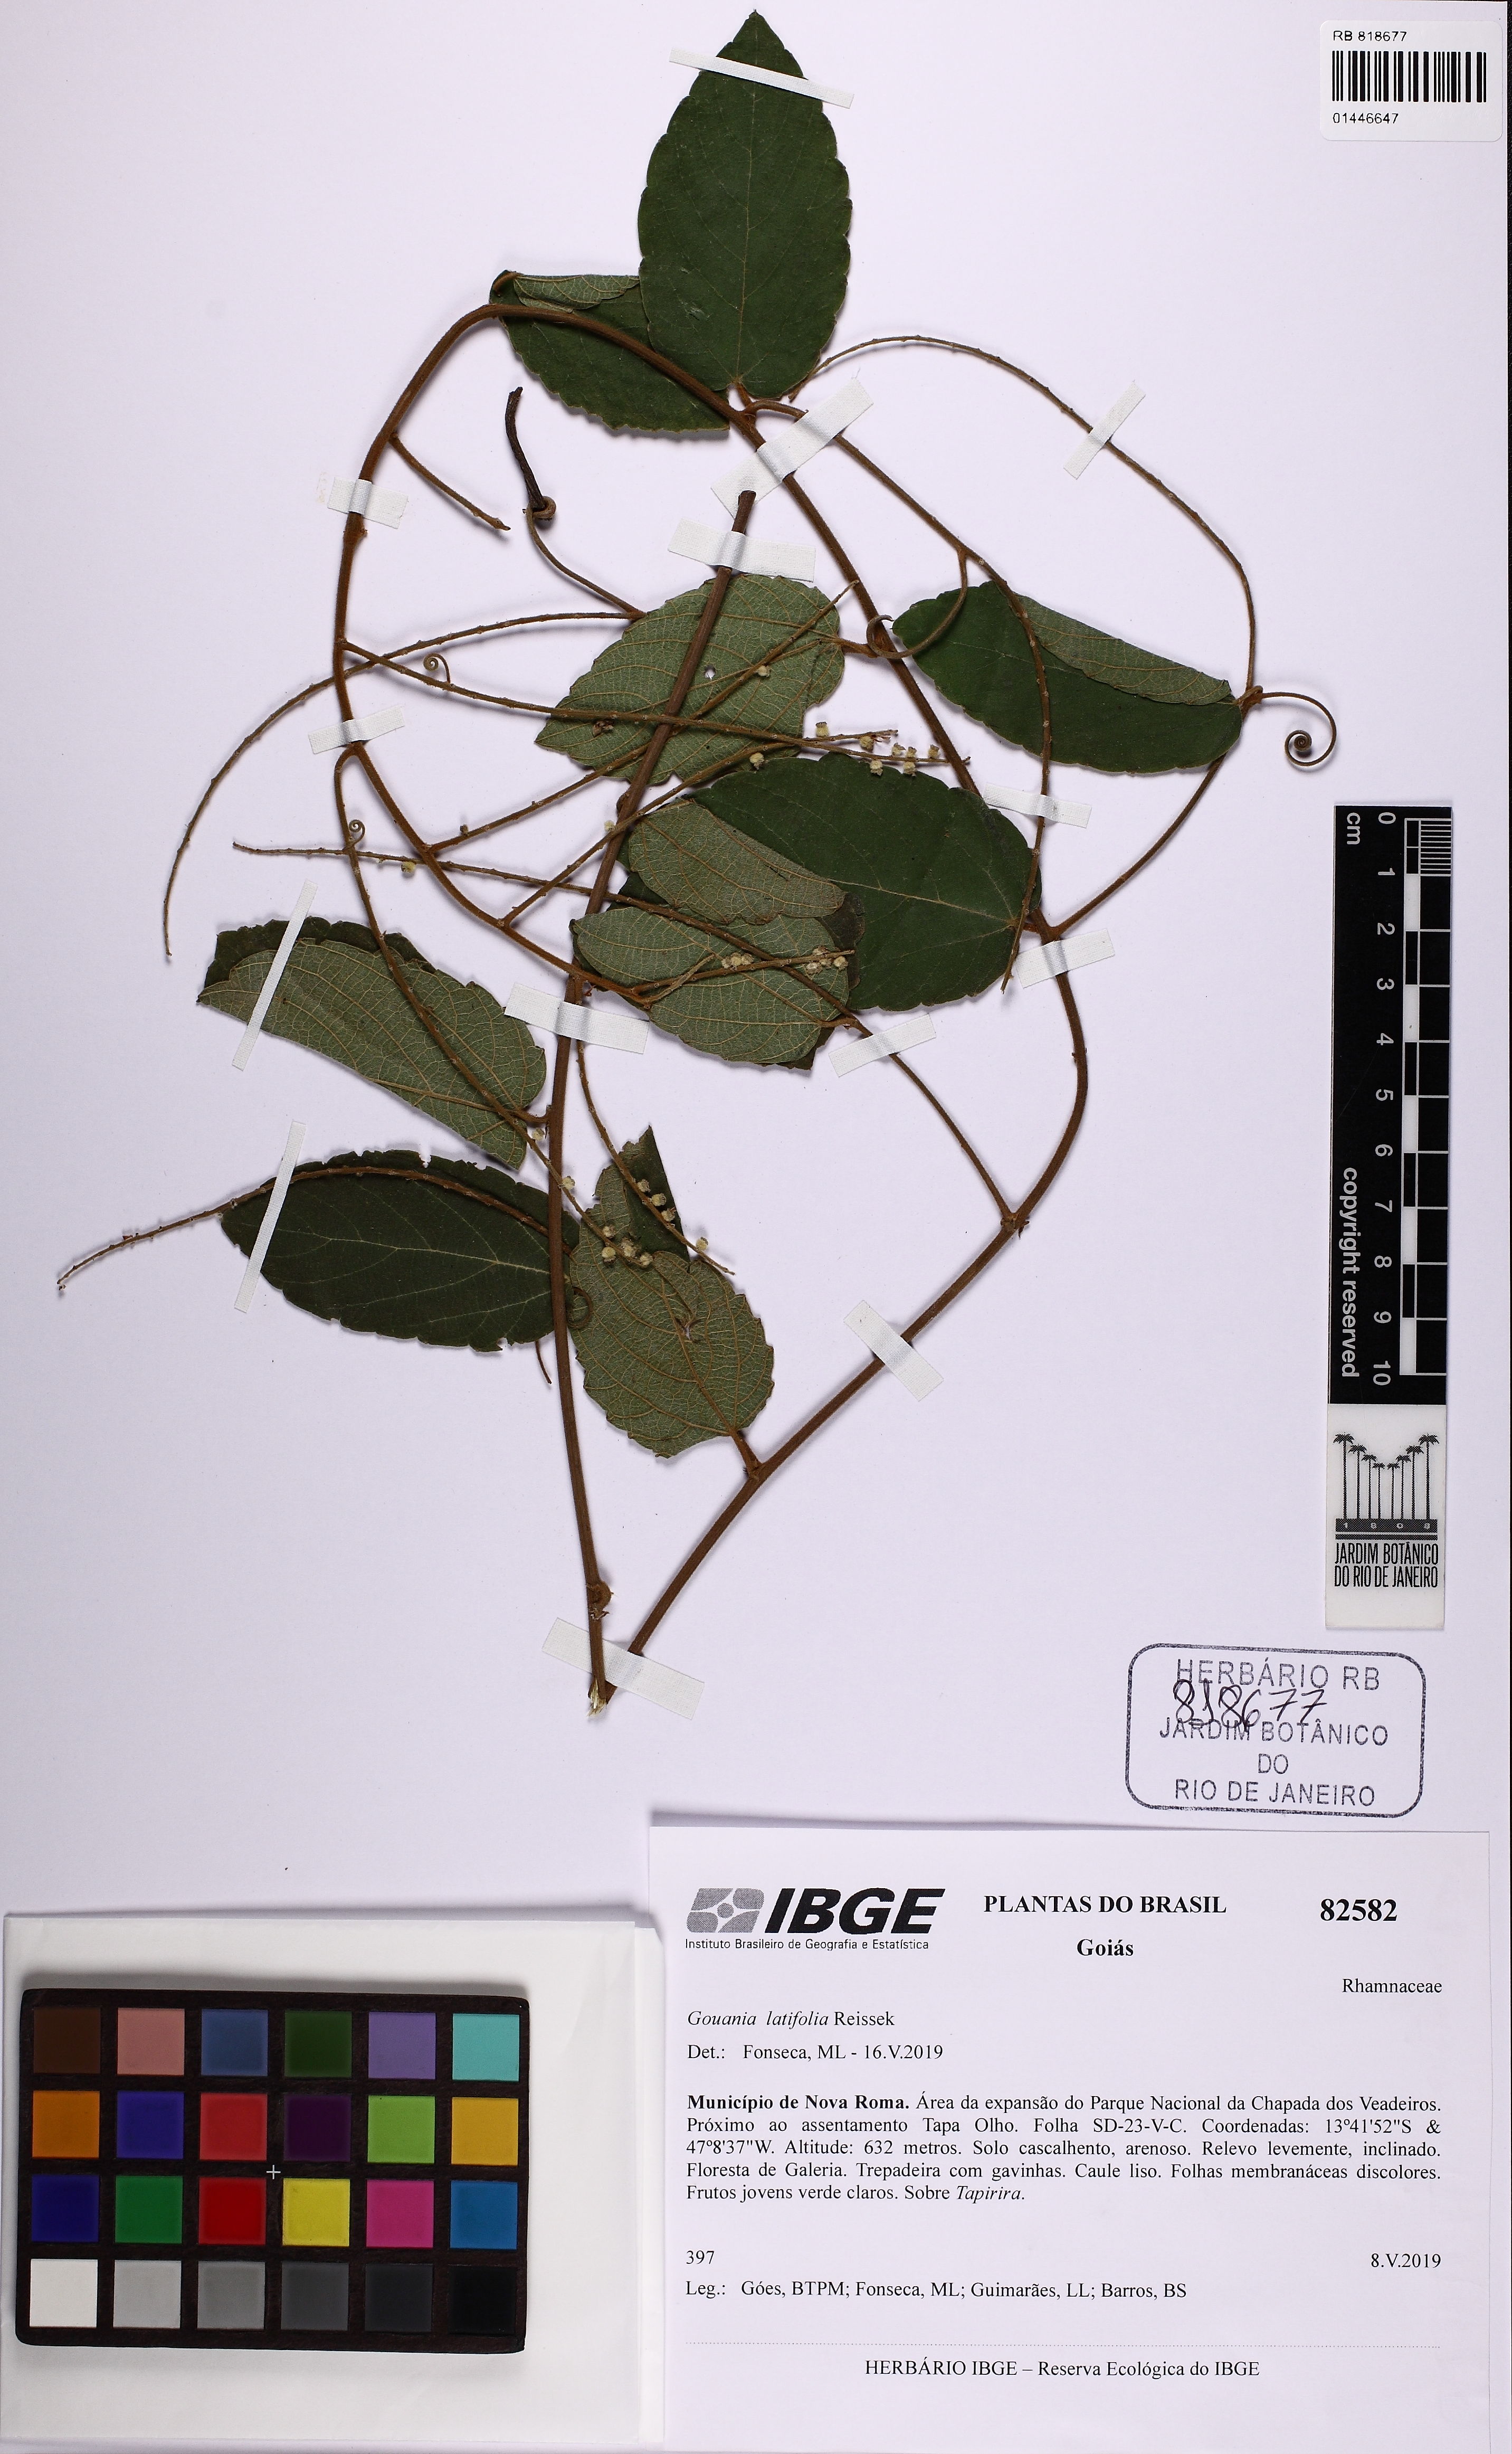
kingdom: Plantae
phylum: Tracheophyta
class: Magnoliopsida
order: Rosales
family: Rhamnaceae
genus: Gouania
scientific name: Gouania latifolia
